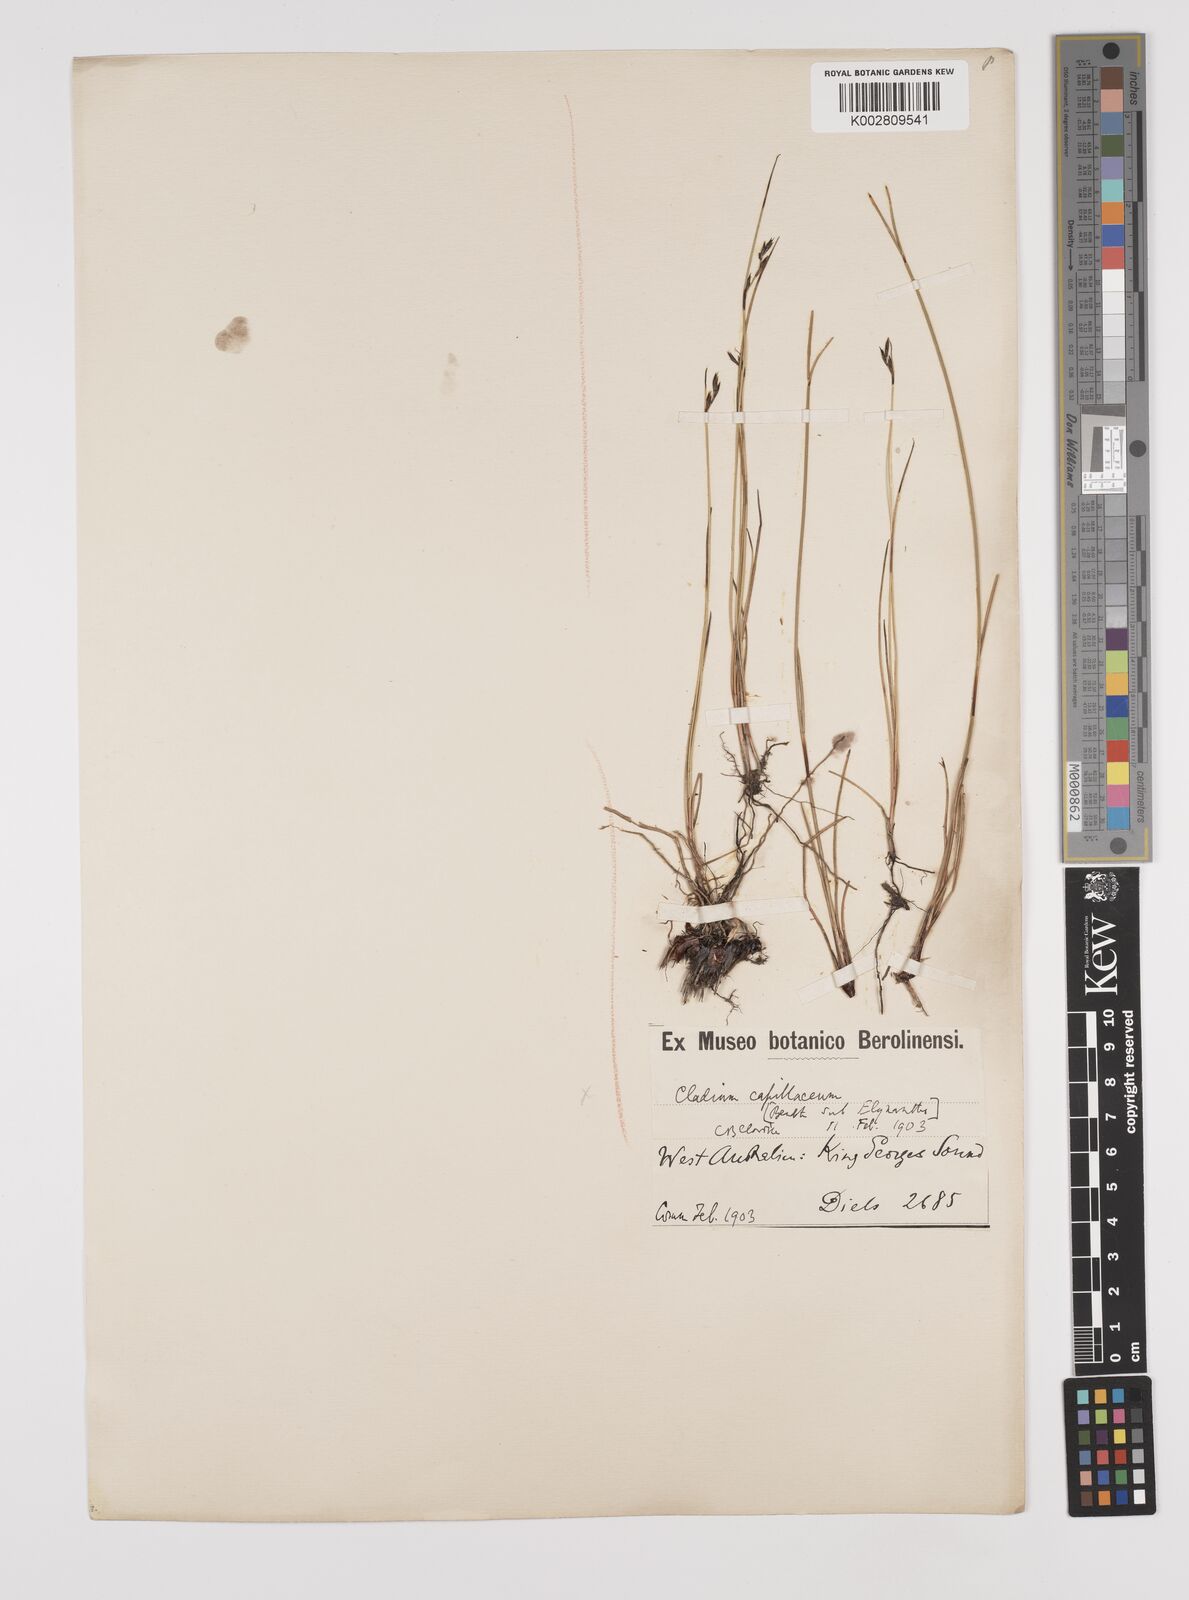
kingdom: Plantae
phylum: Tracheophyta
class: Liliopsida
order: Poales
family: Cyperaceae
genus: Schoenus
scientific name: Schoenus
